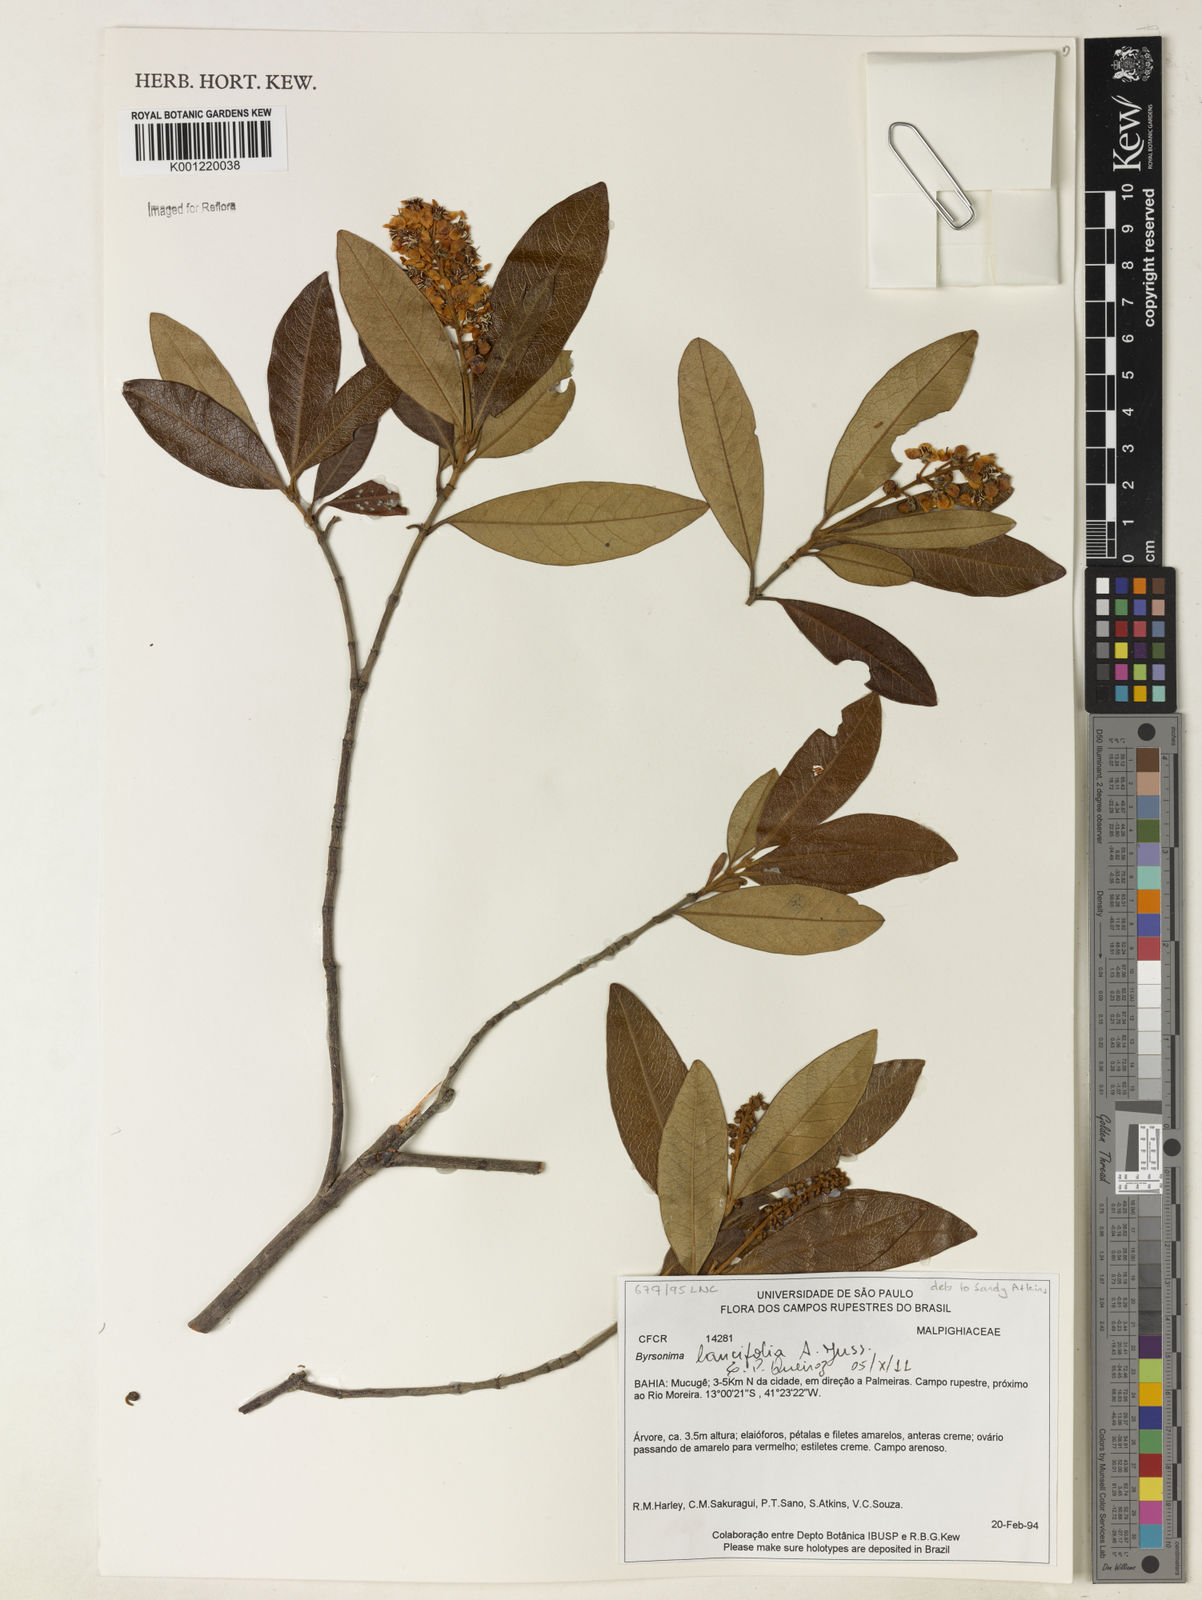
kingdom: Plantae
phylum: Tracheophyta
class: Magnoliopsida
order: Malpighiales
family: Malpighiaceae
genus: Byrsonima
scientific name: Byrsonima lancifolia
